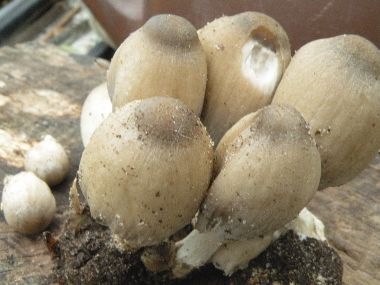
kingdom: Fungi
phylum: Basidiomycota
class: Agaricomycetes
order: Agaricales
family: Psathyrellaceae
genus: Coprinopsis
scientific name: Coprinopsis acuminata
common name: kegle-blækhat
